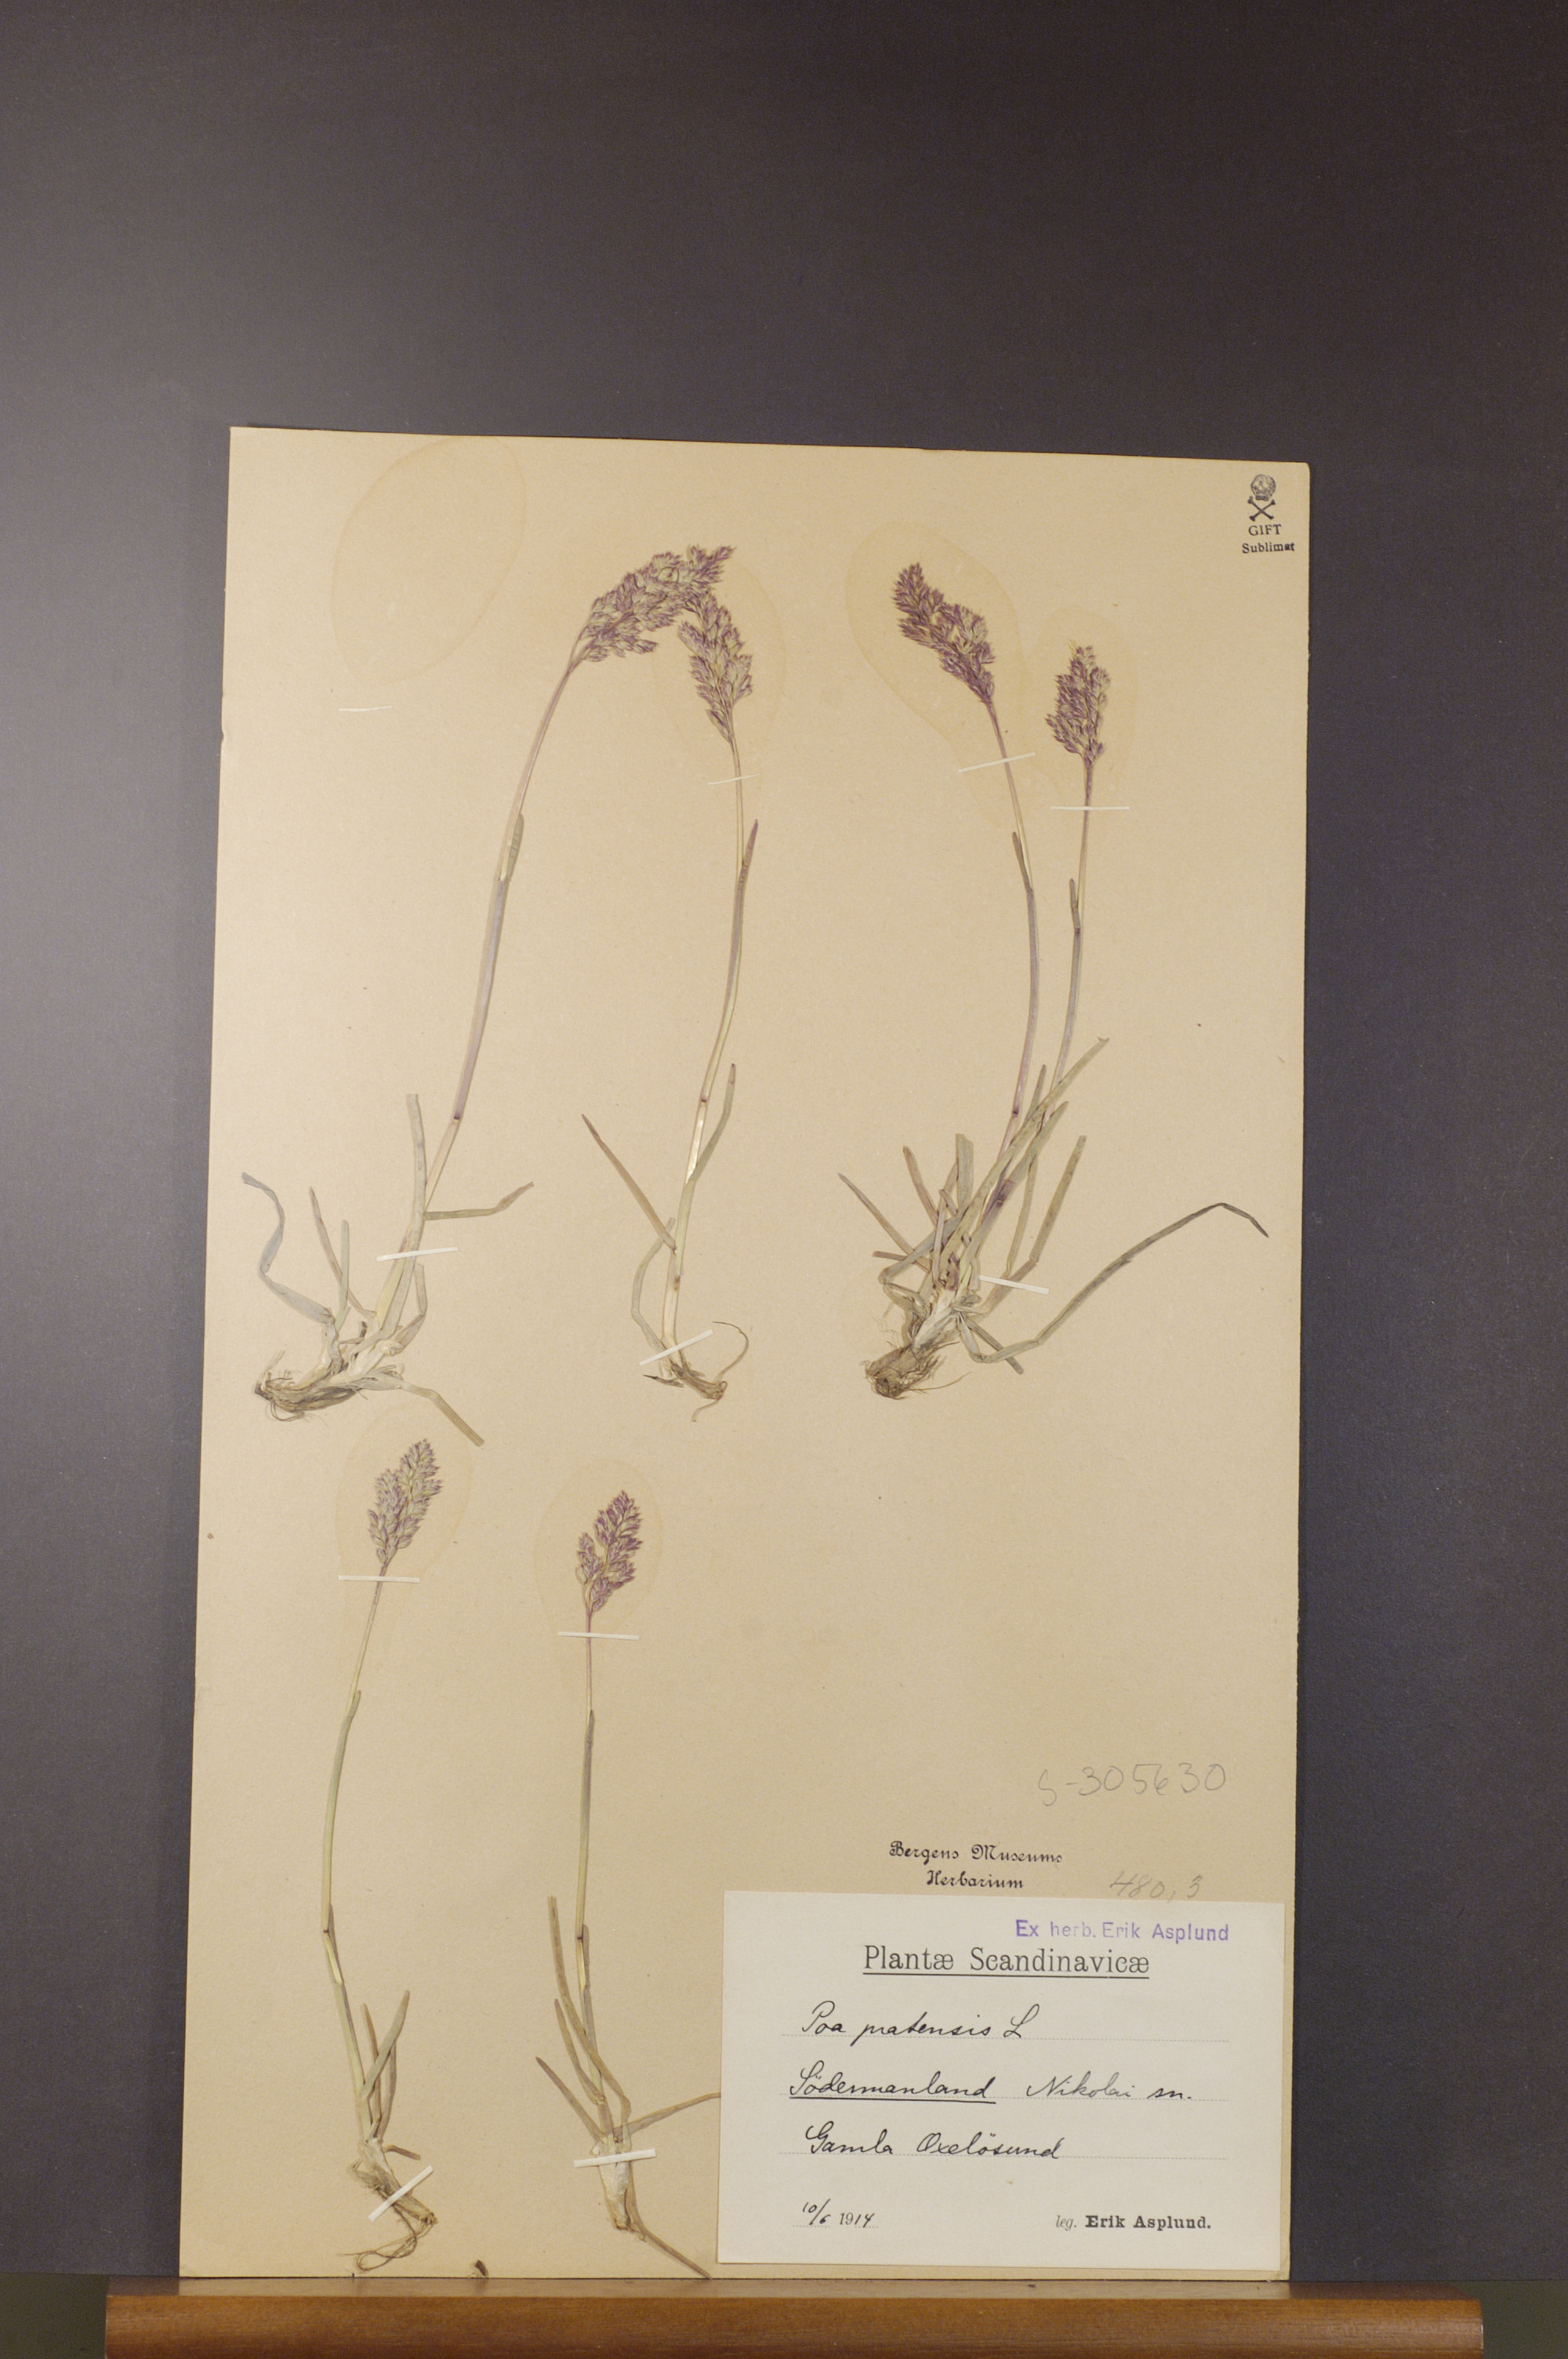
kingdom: Plantae
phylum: Tracheophyta
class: Liliopsida
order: Poales
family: Poaceae
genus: Poa
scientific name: Poa pratensis
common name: Kentucky bluegrass
